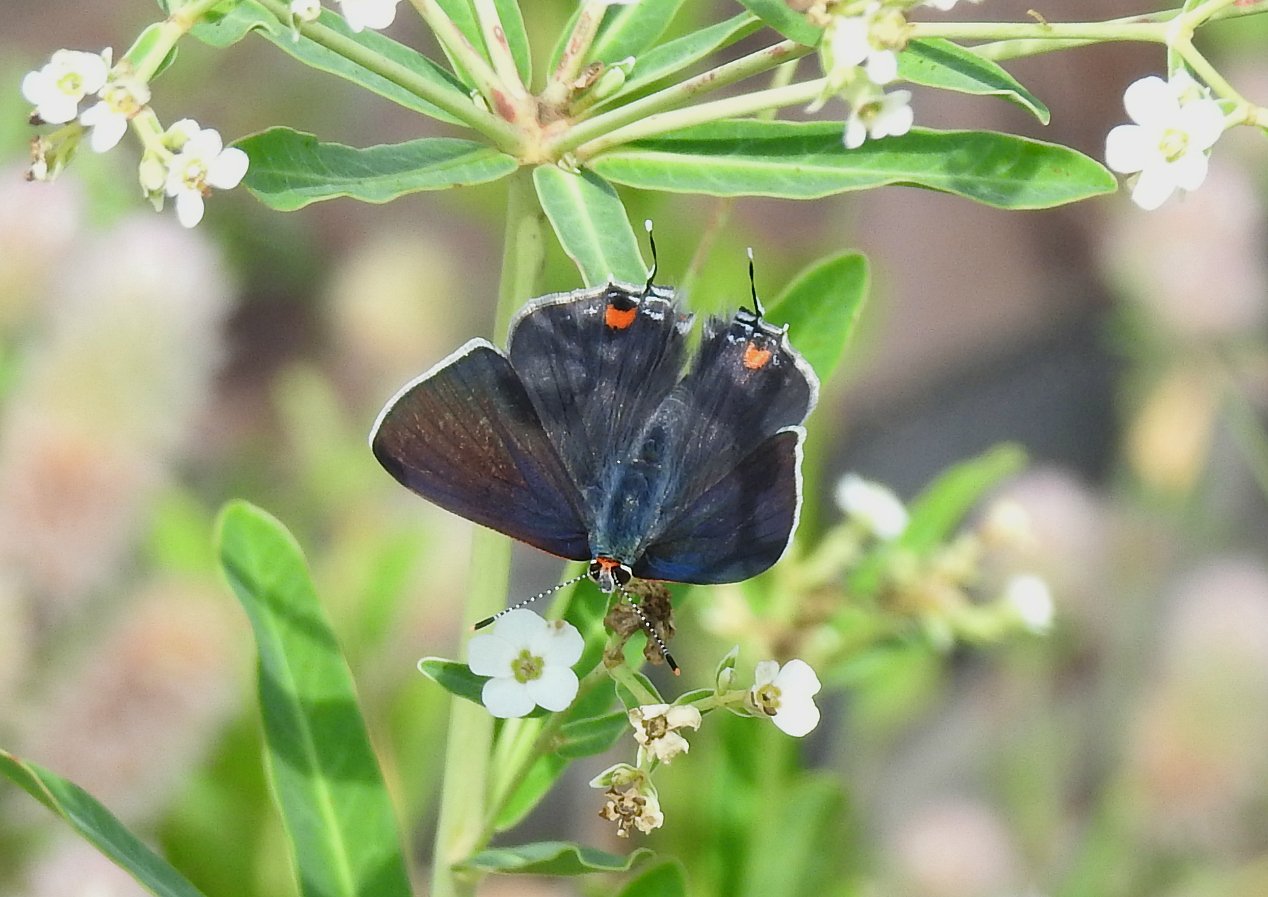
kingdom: Animalia
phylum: Arthropoda
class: Insecta
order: Lepidoptera
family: Lycaenidae
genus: Strymon
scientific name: Strymon melinus
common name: Gray Hairstreak
